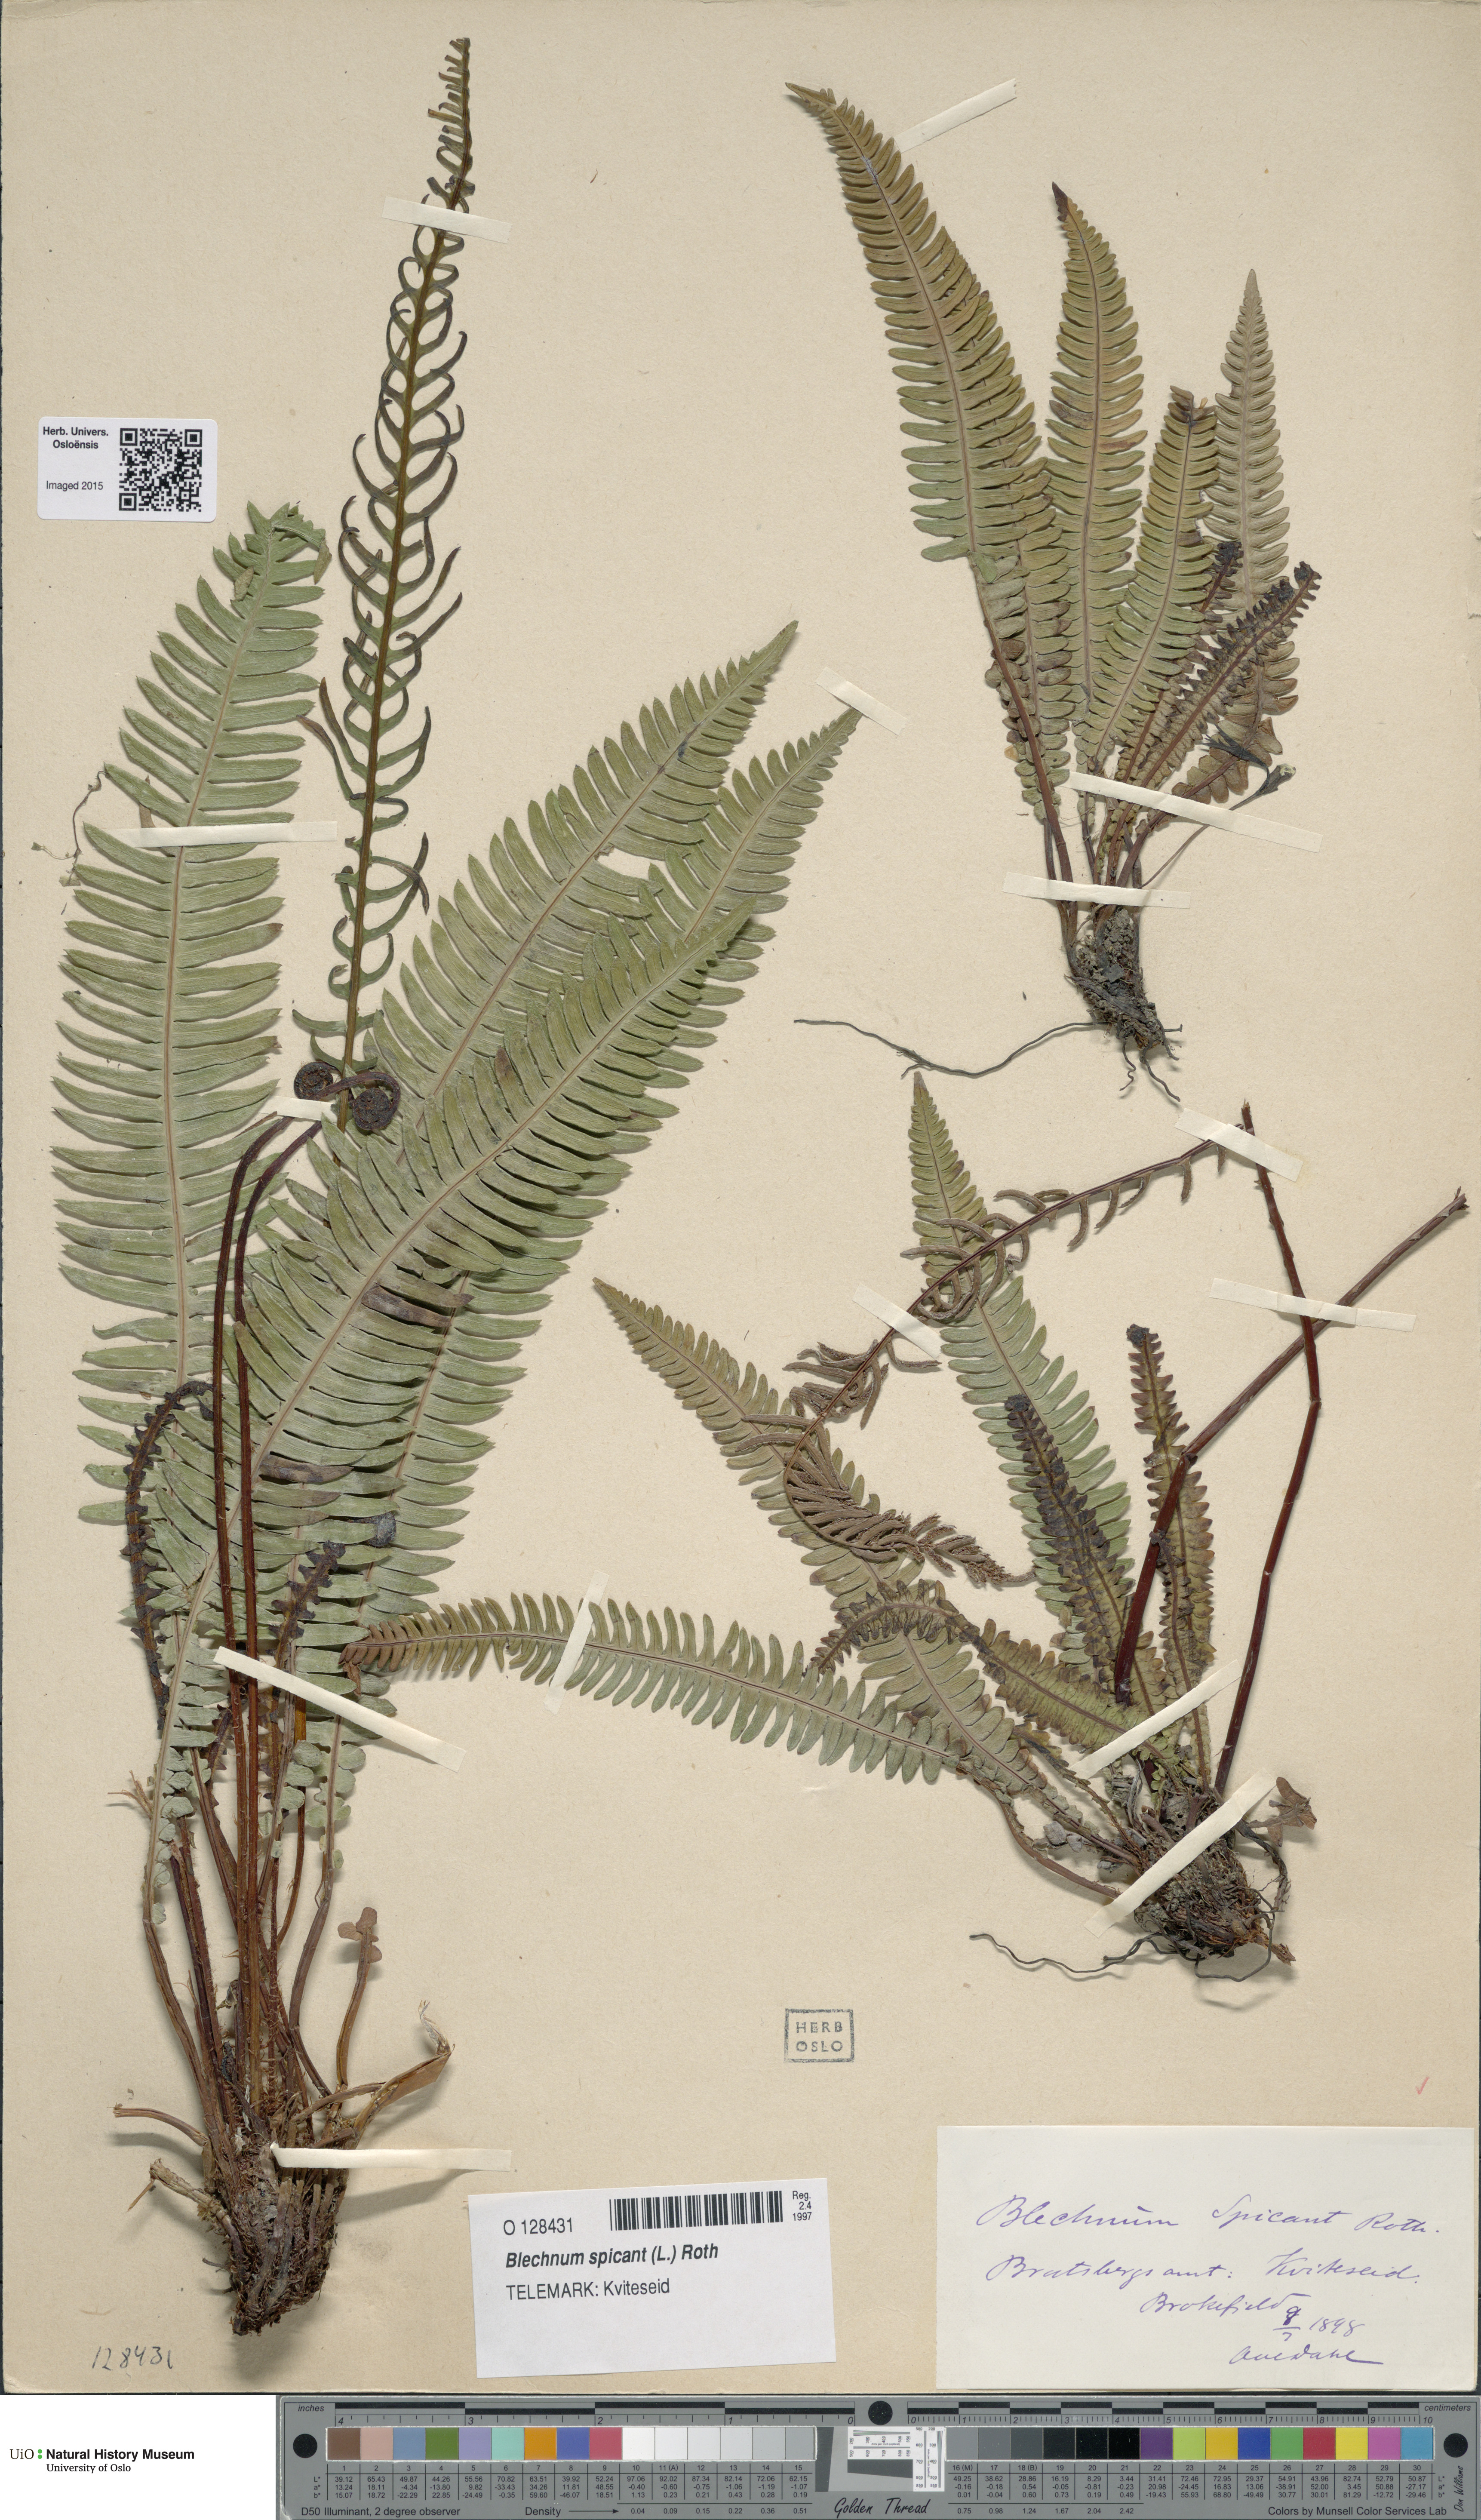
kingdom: Plantae
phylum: Tracheophyta
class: Polypodiopsida
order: Polypodiales
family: Blechnaceae
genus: Struthiopteris
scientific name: Struthiopteris spicant
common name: Deer fern
